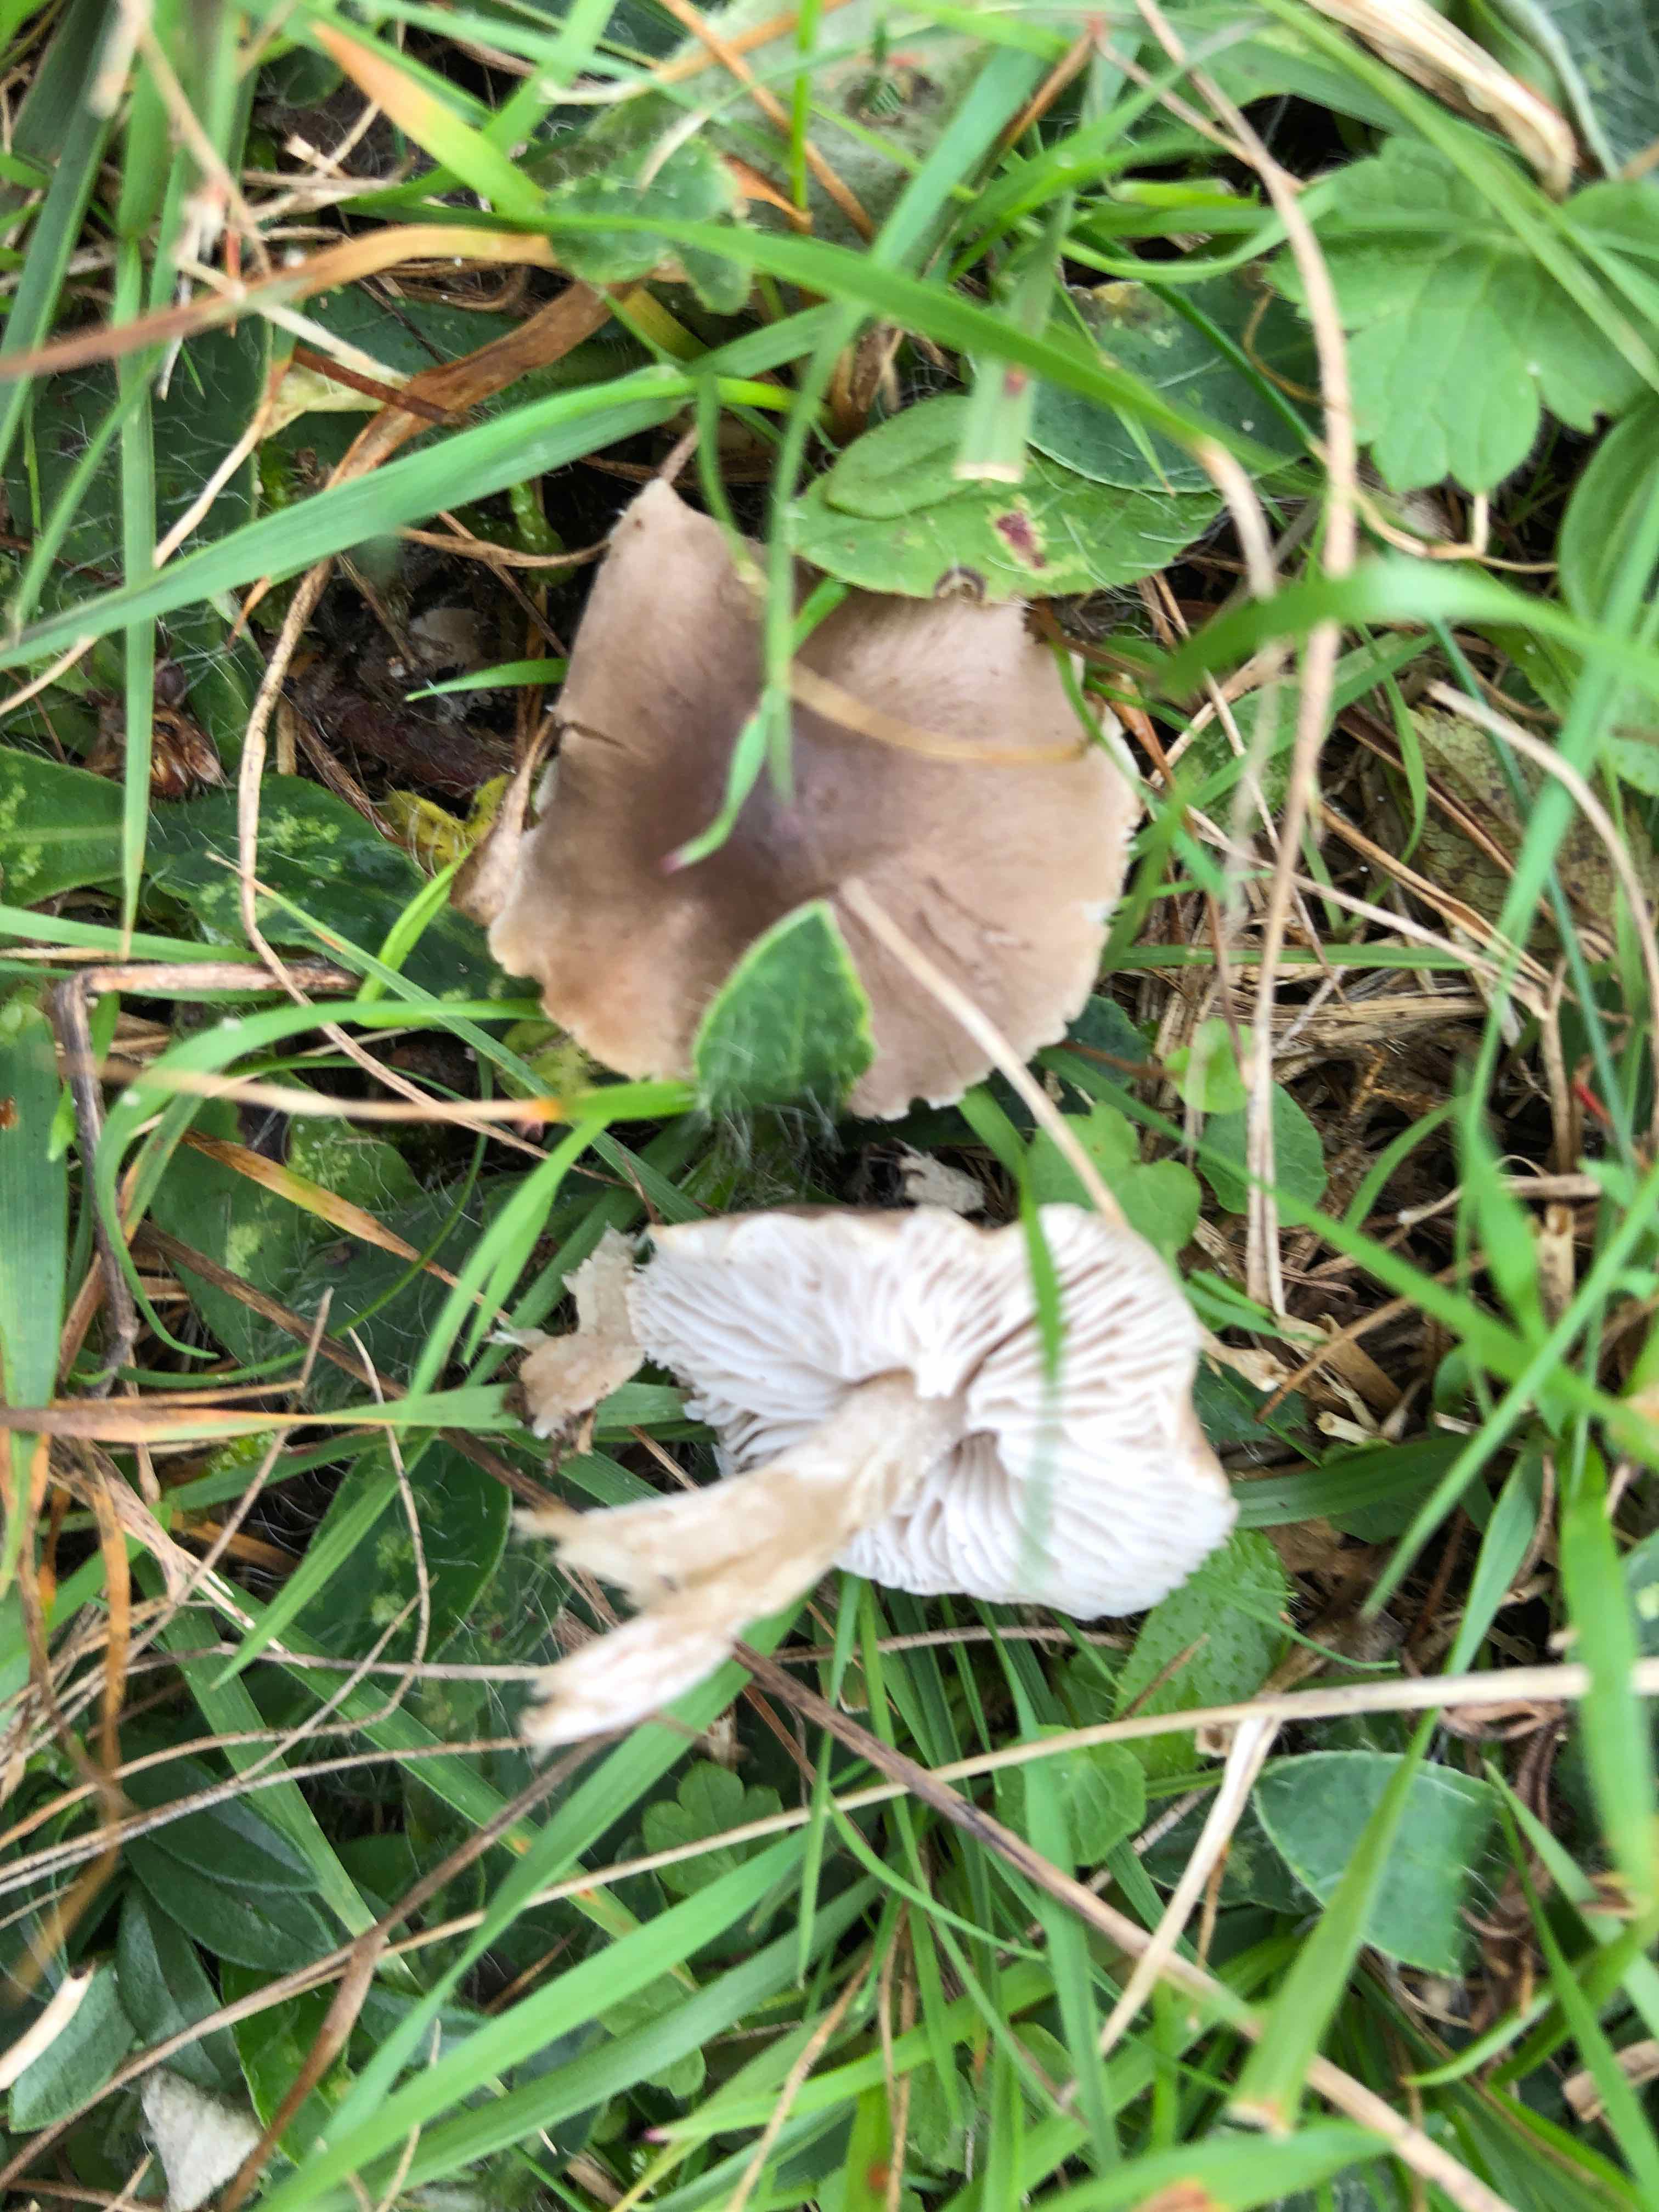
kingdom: Fungi
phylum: Basidiomycota
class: Agaricomycetes
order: Agaricales
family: Tricholomataceae
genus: Dermoloma
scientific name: Dermoloma cuneifolium
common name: eng-nonnehat
